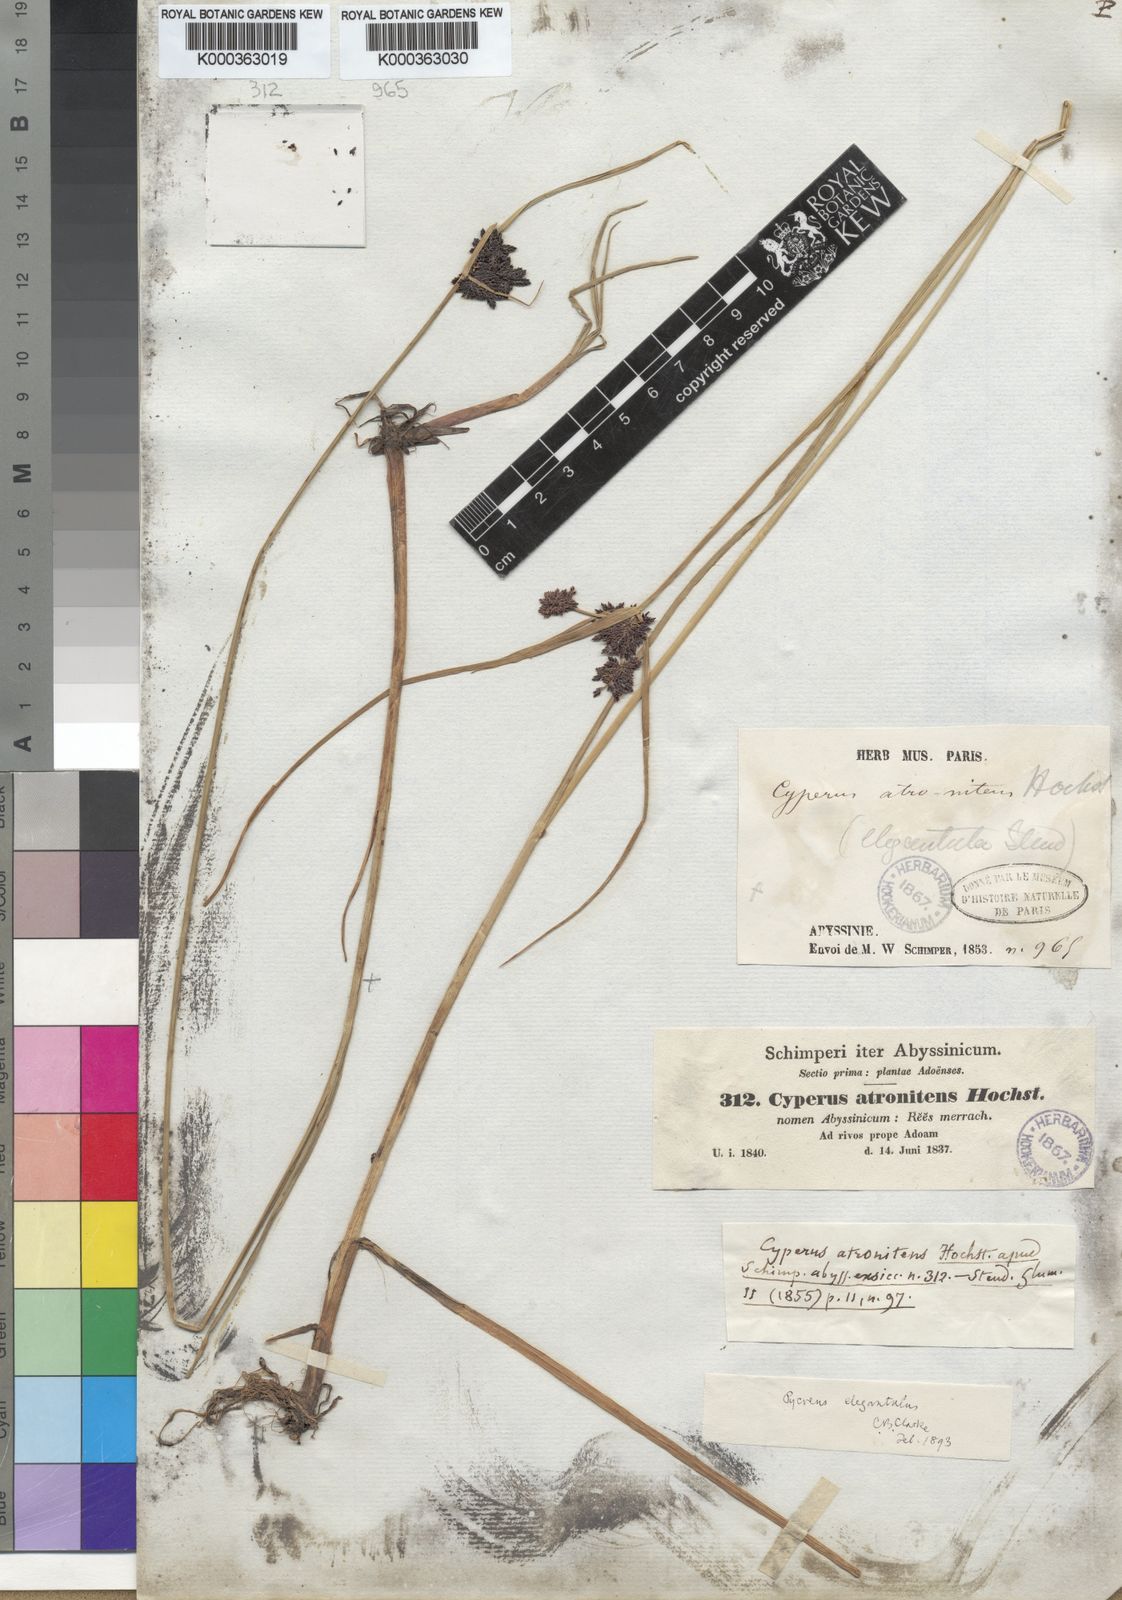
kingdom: Plantae
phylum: Tracheophyta
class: Liliopsida
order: Poales
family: Cyperaceae
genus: Cyperus
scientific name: Cyperus elegantulus
